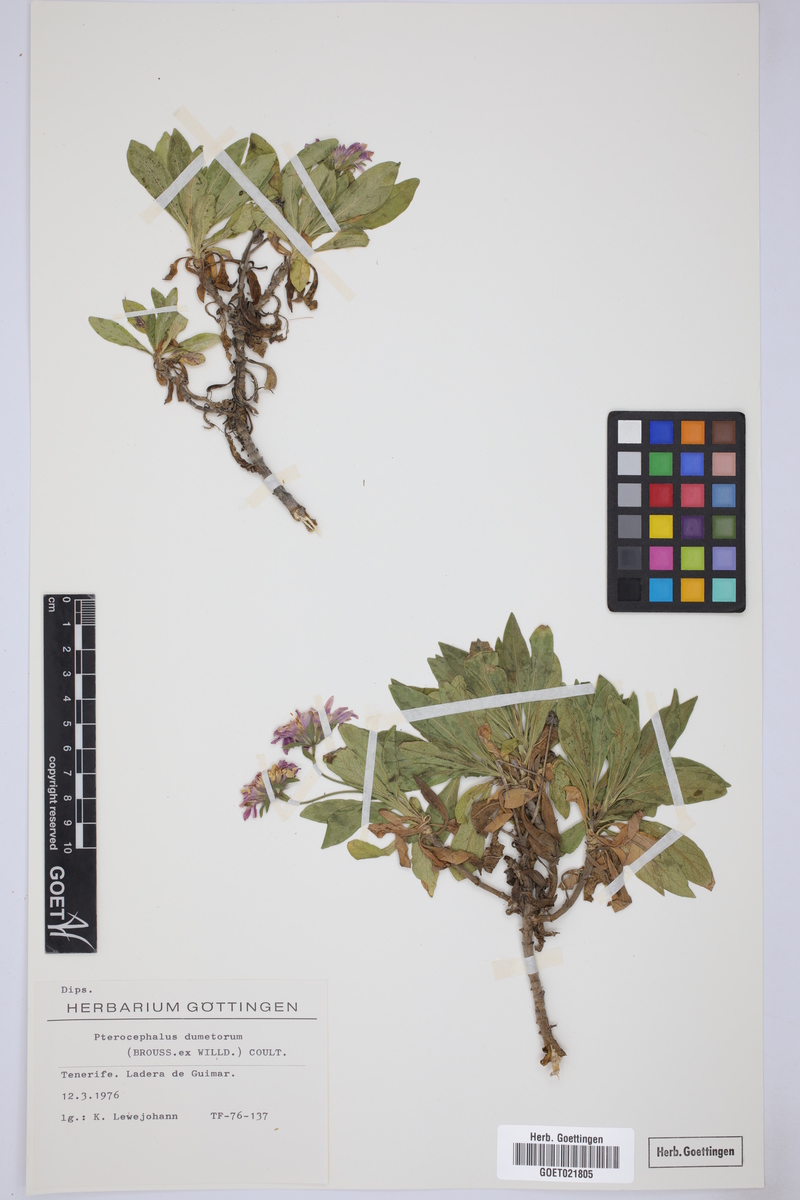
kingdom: Plantae
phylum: Tracheophyta
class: Magnoliopsida
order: Dipsacales
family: Caprifoliaceae
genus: Pterocephalus
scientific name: Pterocephalus dumetorus
